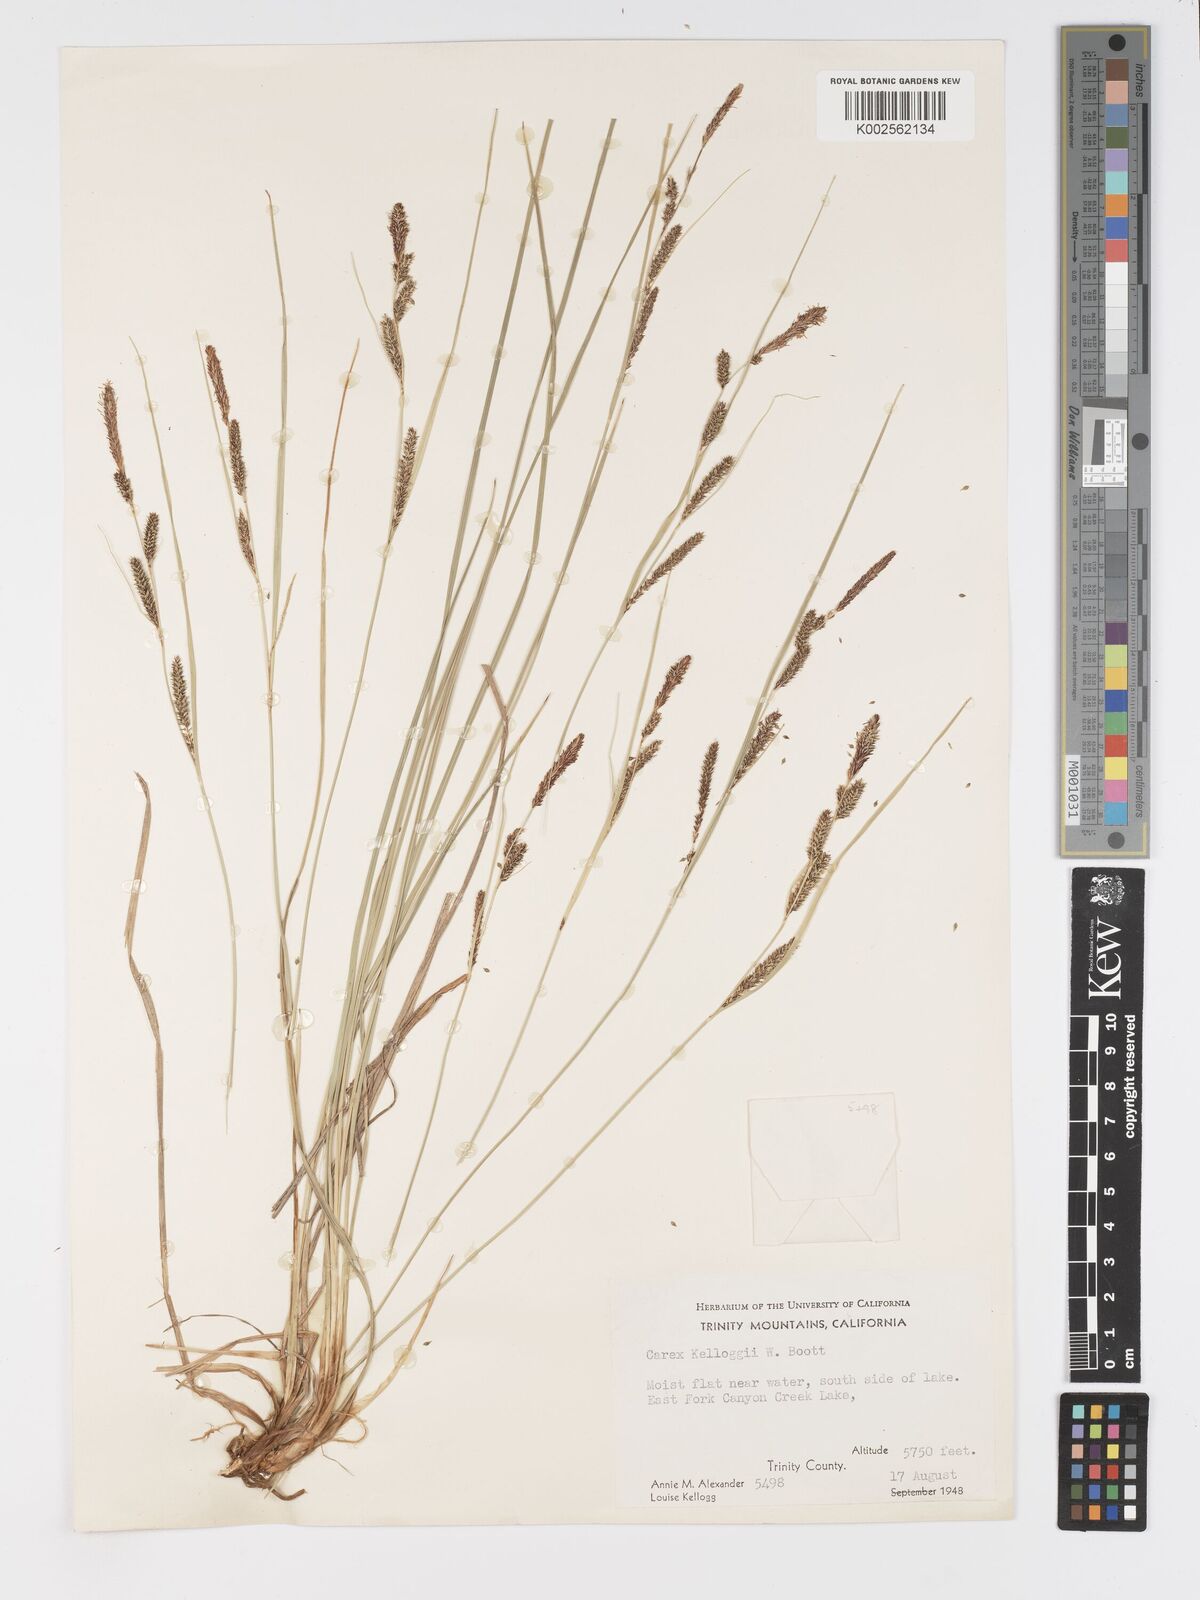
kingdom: Plantae
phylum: Tracheophyta
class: Liliopsida
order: Poales
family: Cyperaceae
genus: Carex
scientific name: Carex kelloggii
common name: Kellogg's sedge
